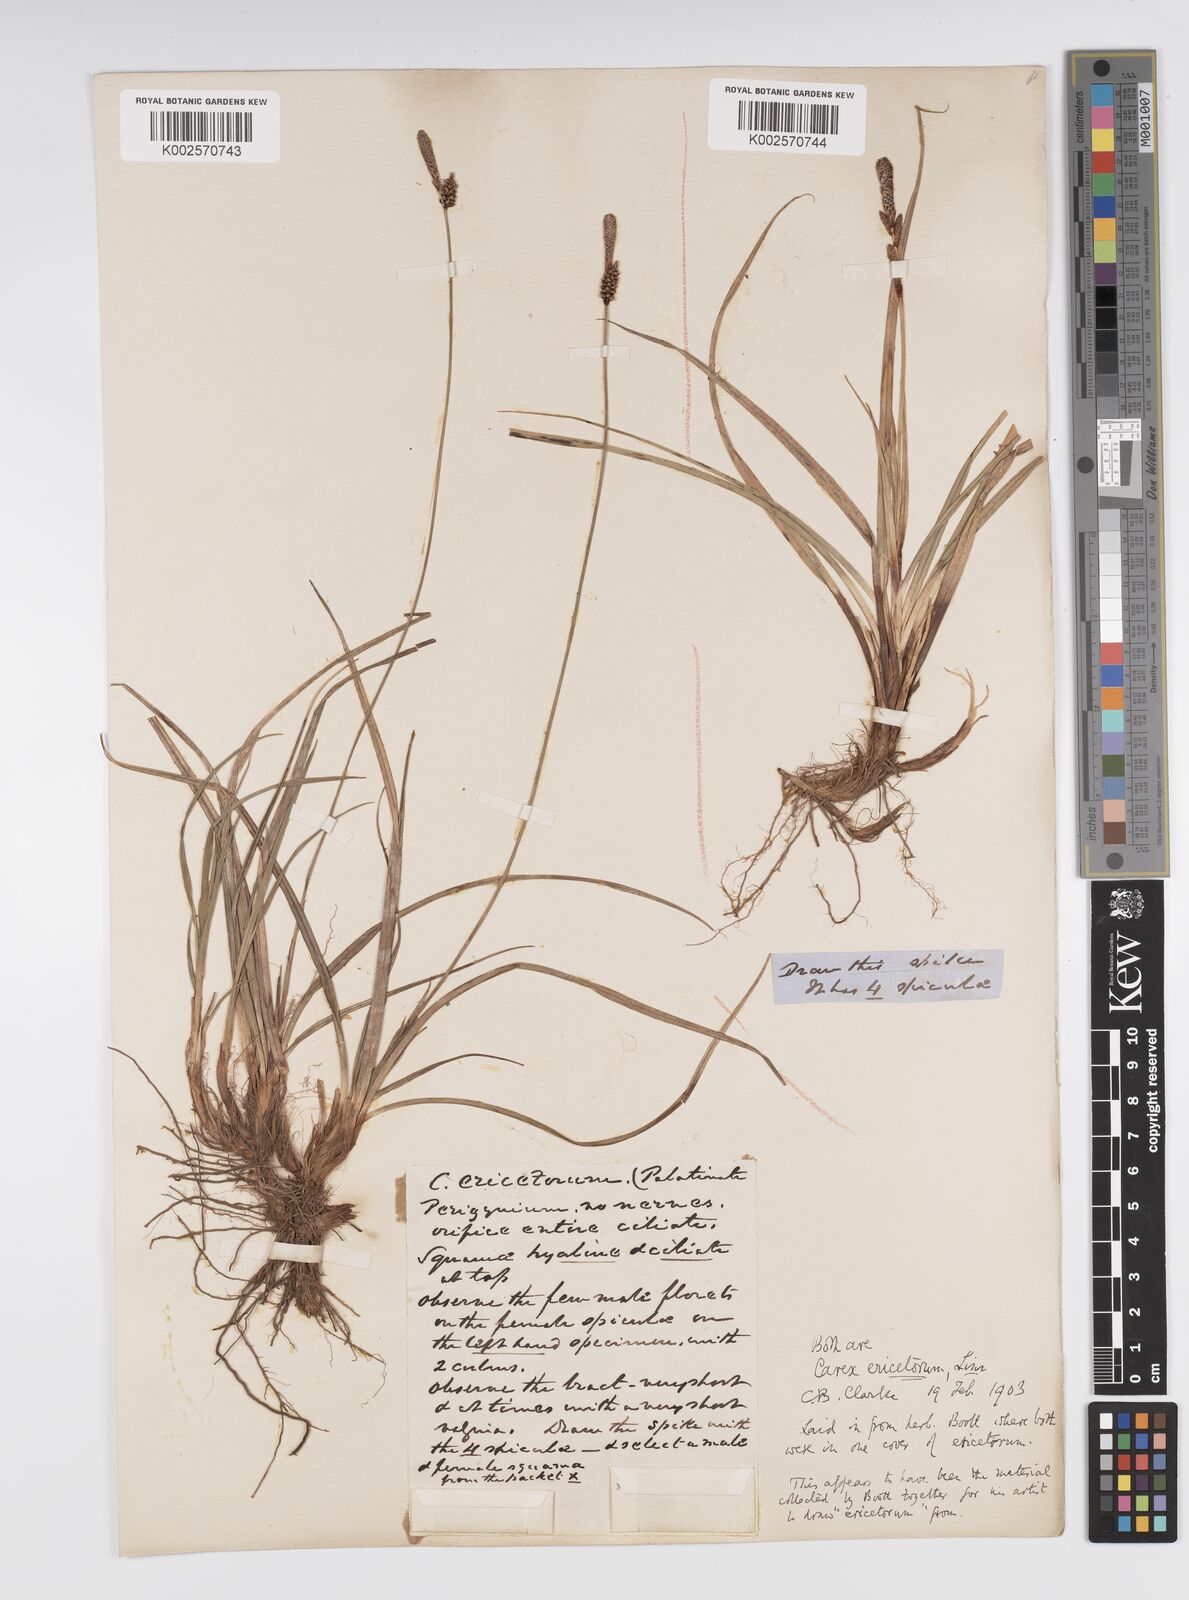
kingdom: Plantae
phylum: Tracheophyta
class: Liliopsida
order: Poales
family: Cyperaceae
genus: Carex
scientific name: Carex ericetorum
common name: Rare spring-sedge
